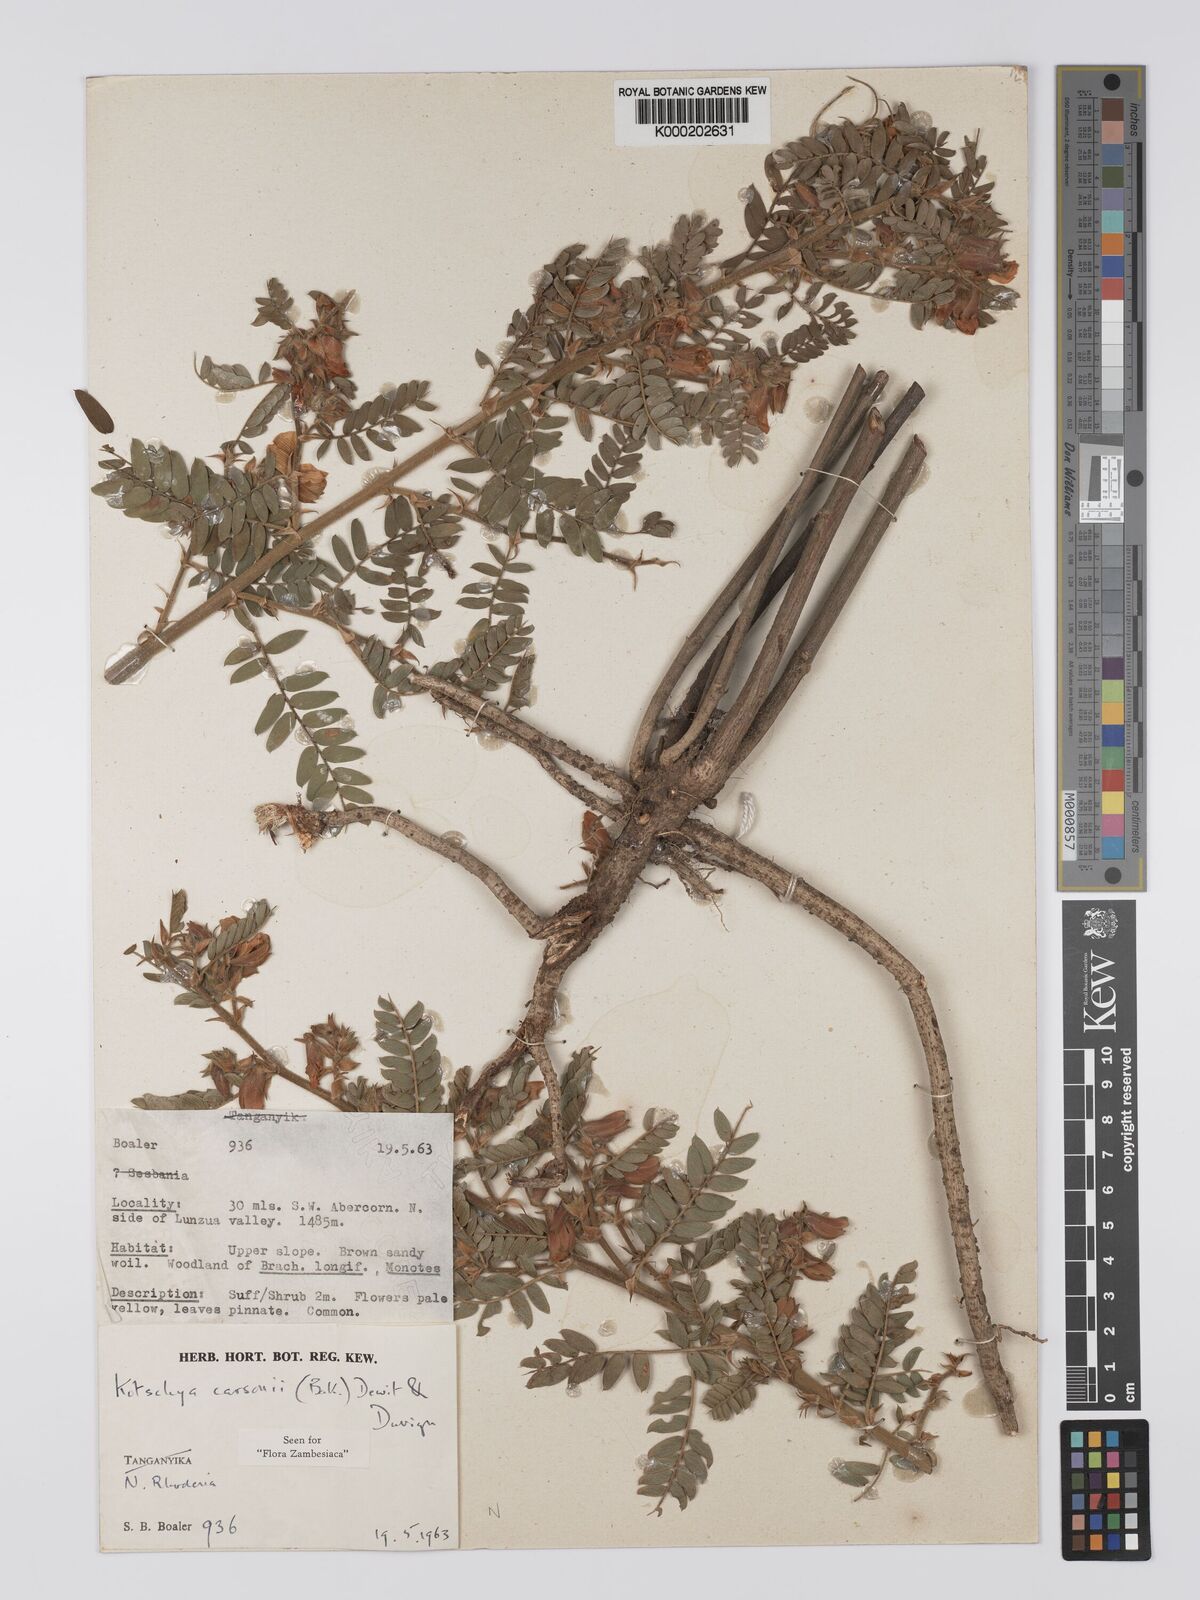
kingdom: Plantae
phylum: Tracheophyta
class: Magnoliopsida
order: Fabales
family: Fabaceae
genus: Kotschya
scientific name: Kotschya carsonii
